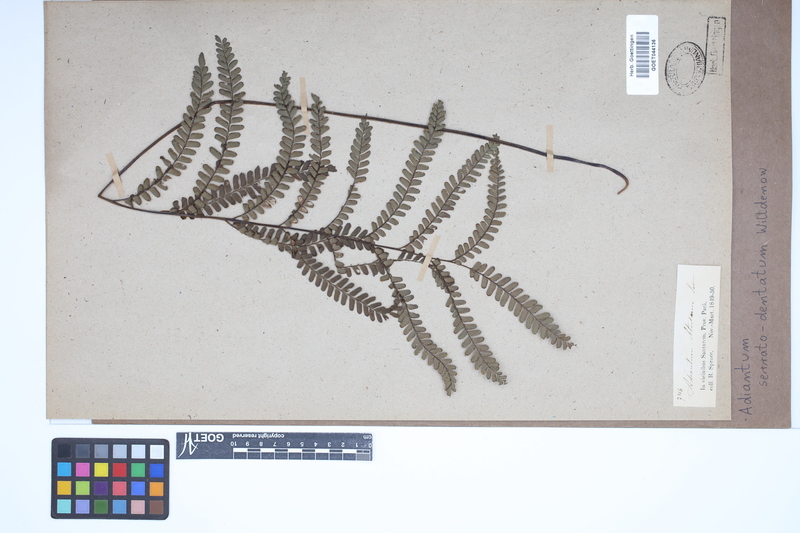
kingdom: Plantae
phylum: Tracheophyta
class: Polypodiopsida
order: Polypodiales
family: Pteridaceae
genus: Adiantum
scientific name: Adiantum serratodentatum
